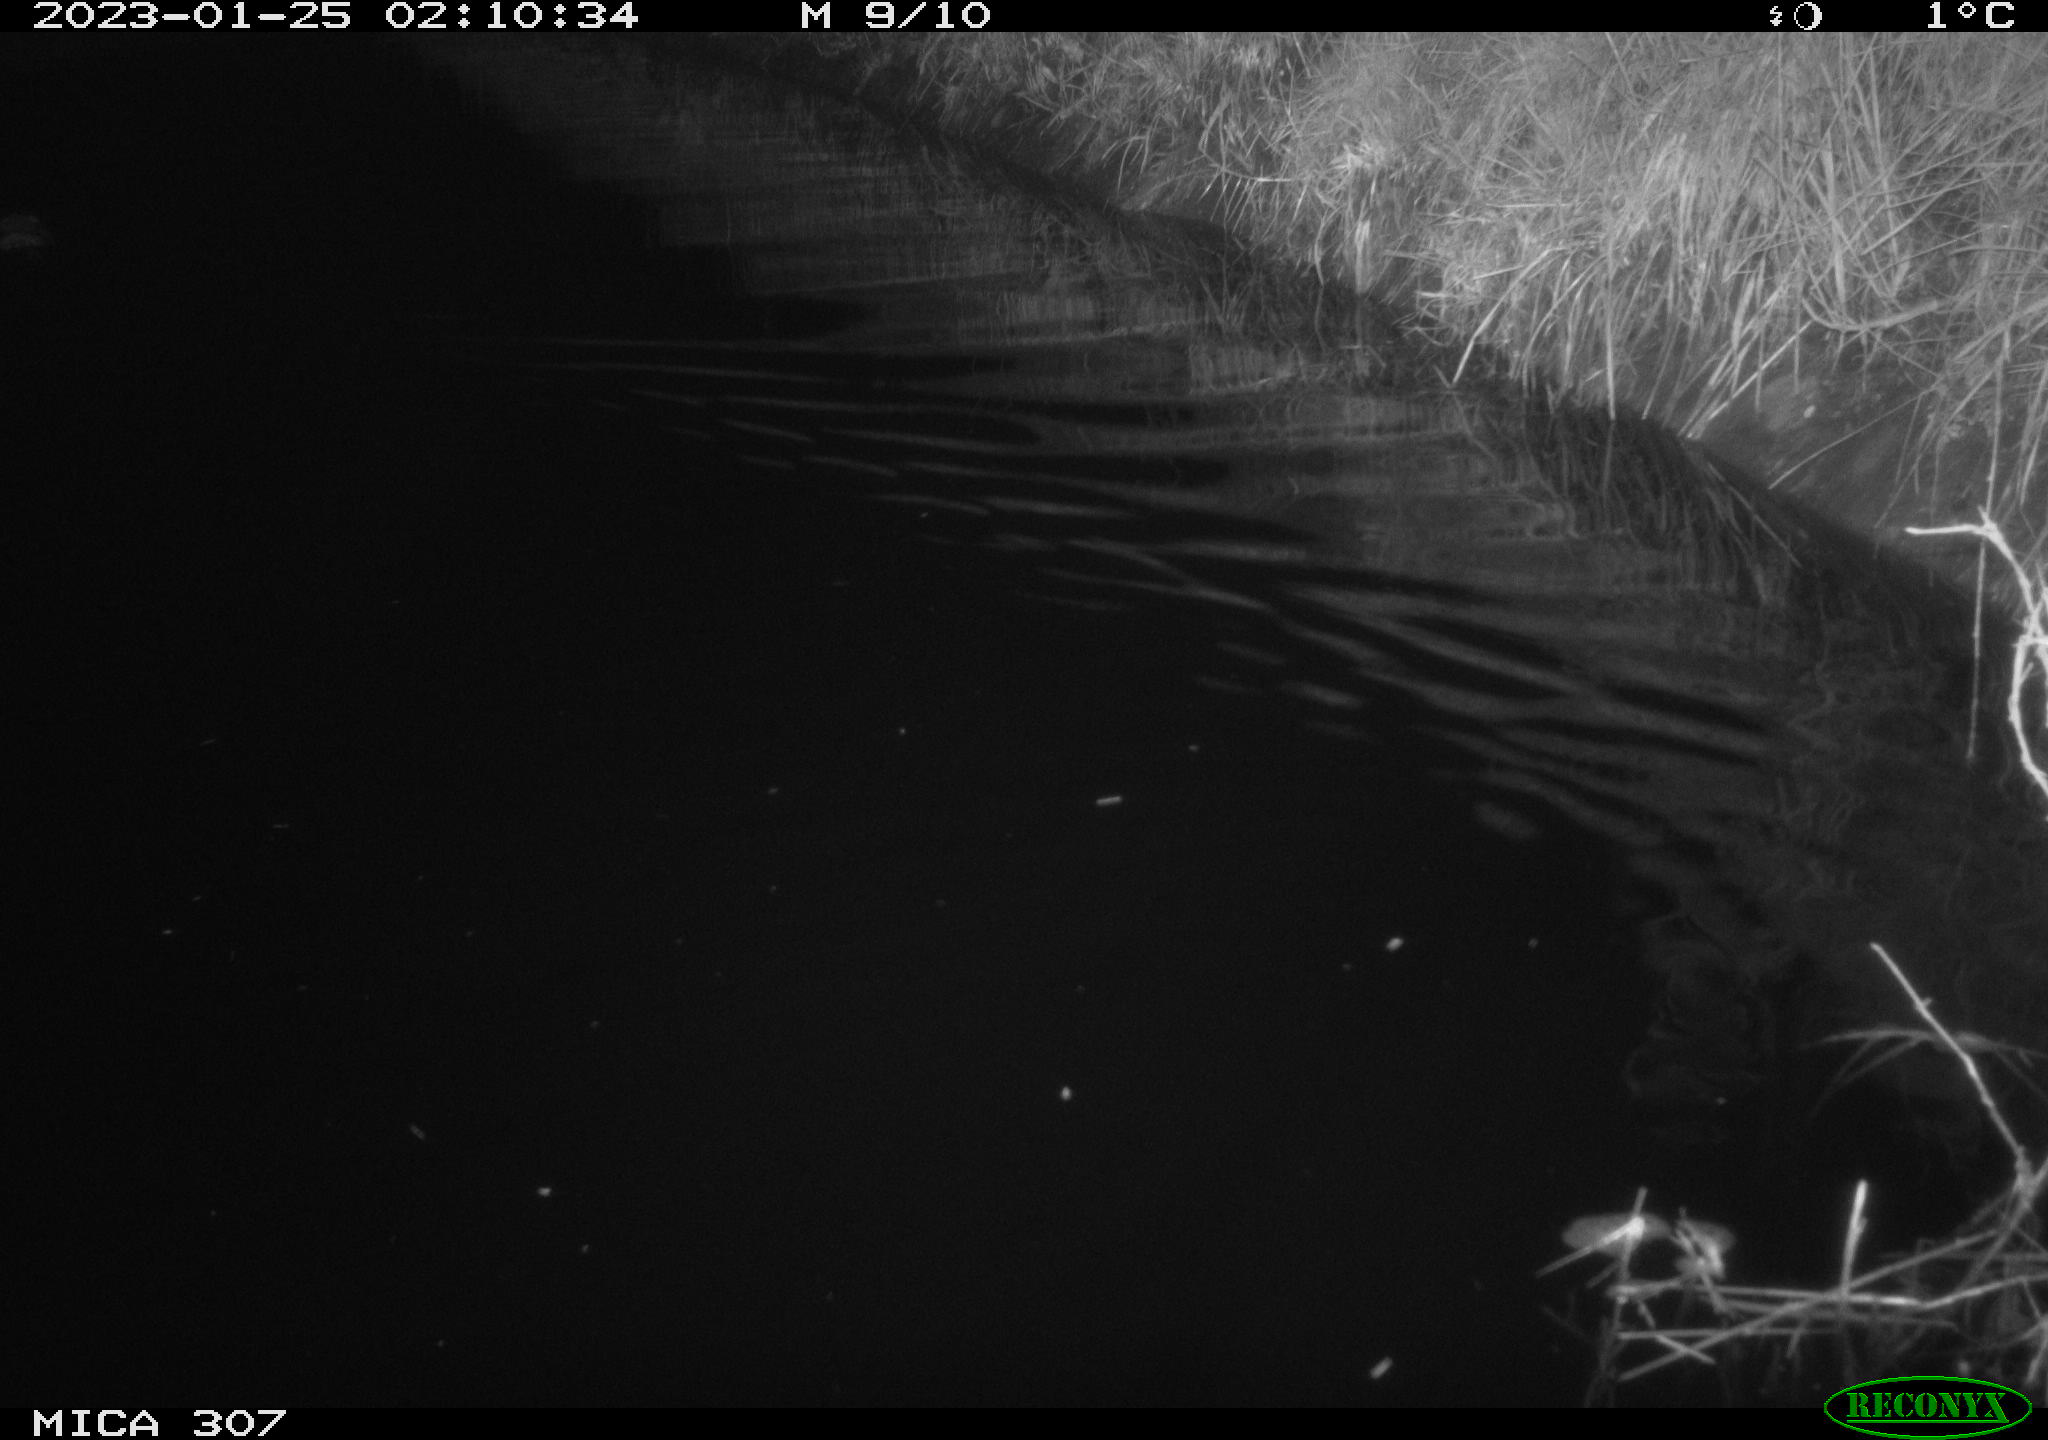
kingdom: Animalia
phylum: Chordata
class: Mammalia
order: Rodentia
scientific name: Rodentia
